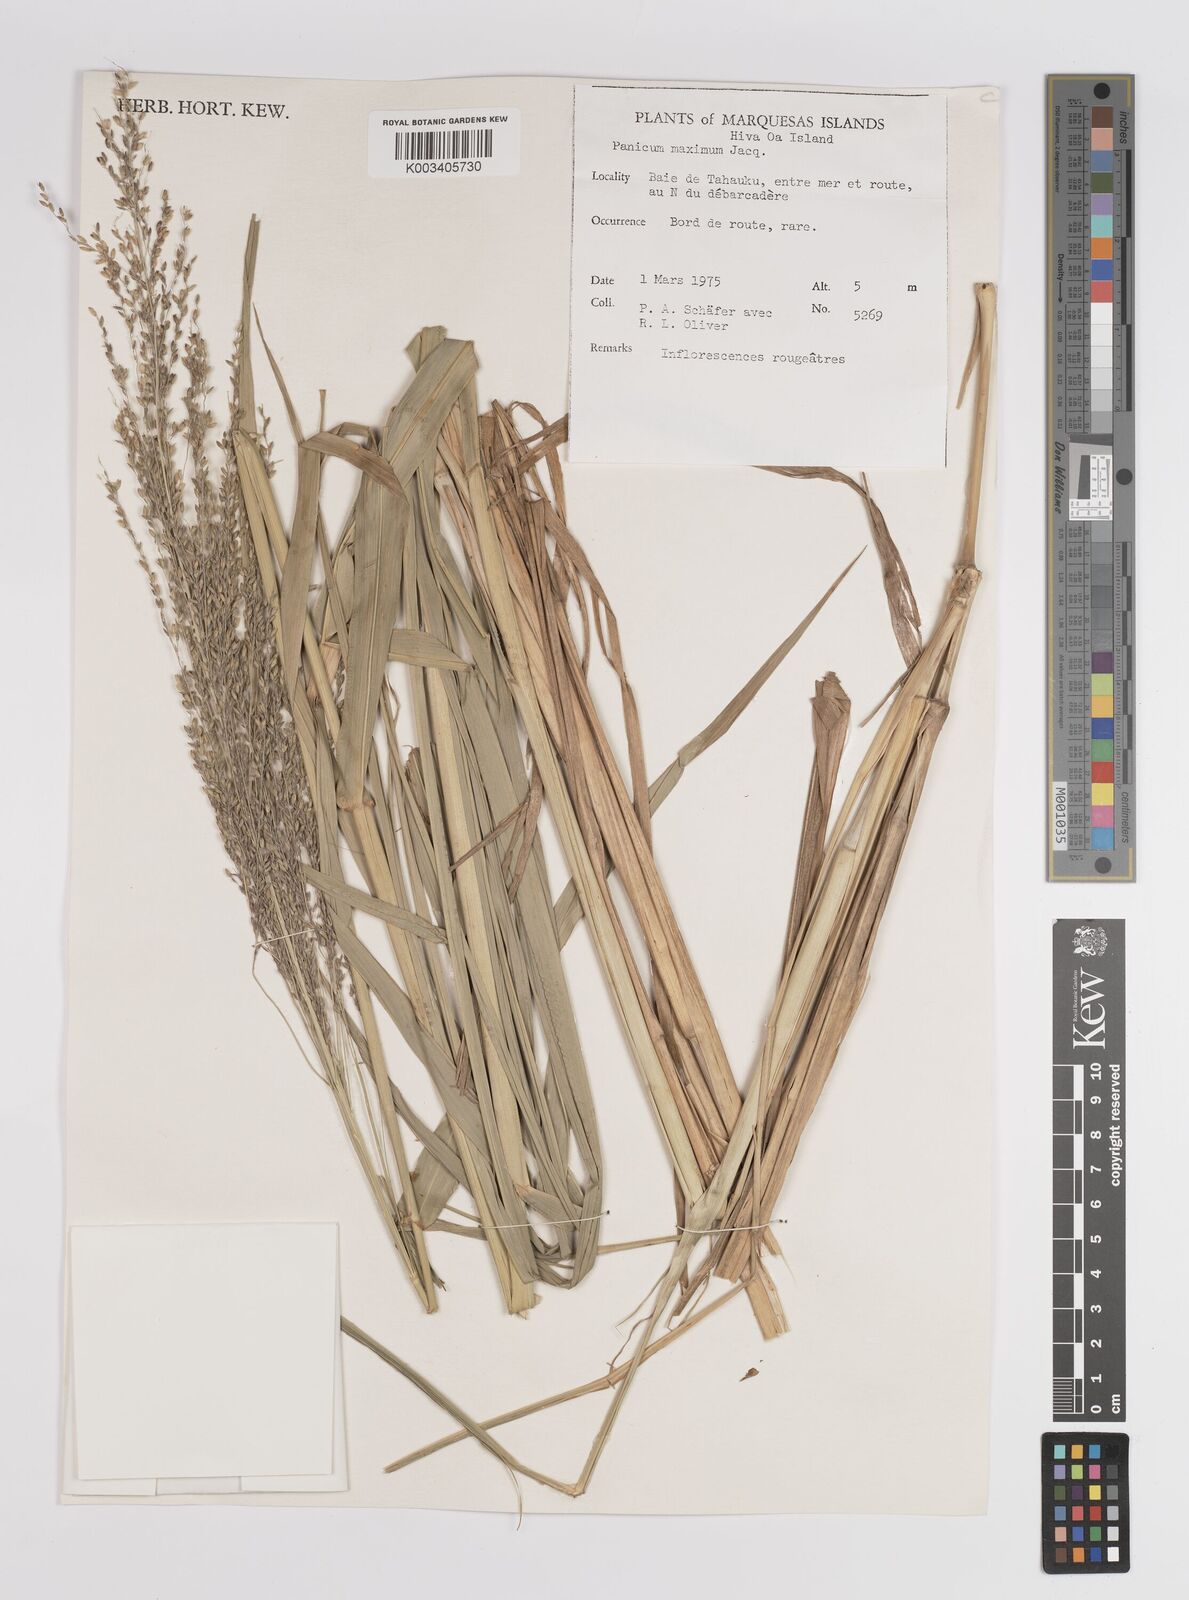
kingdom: Plantae
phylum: Tracheophyta
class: Liliopsida
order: Poales
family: Poaceae
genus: Megathyrsus
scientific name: Megathyrsus maximus
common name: Guineagrass
